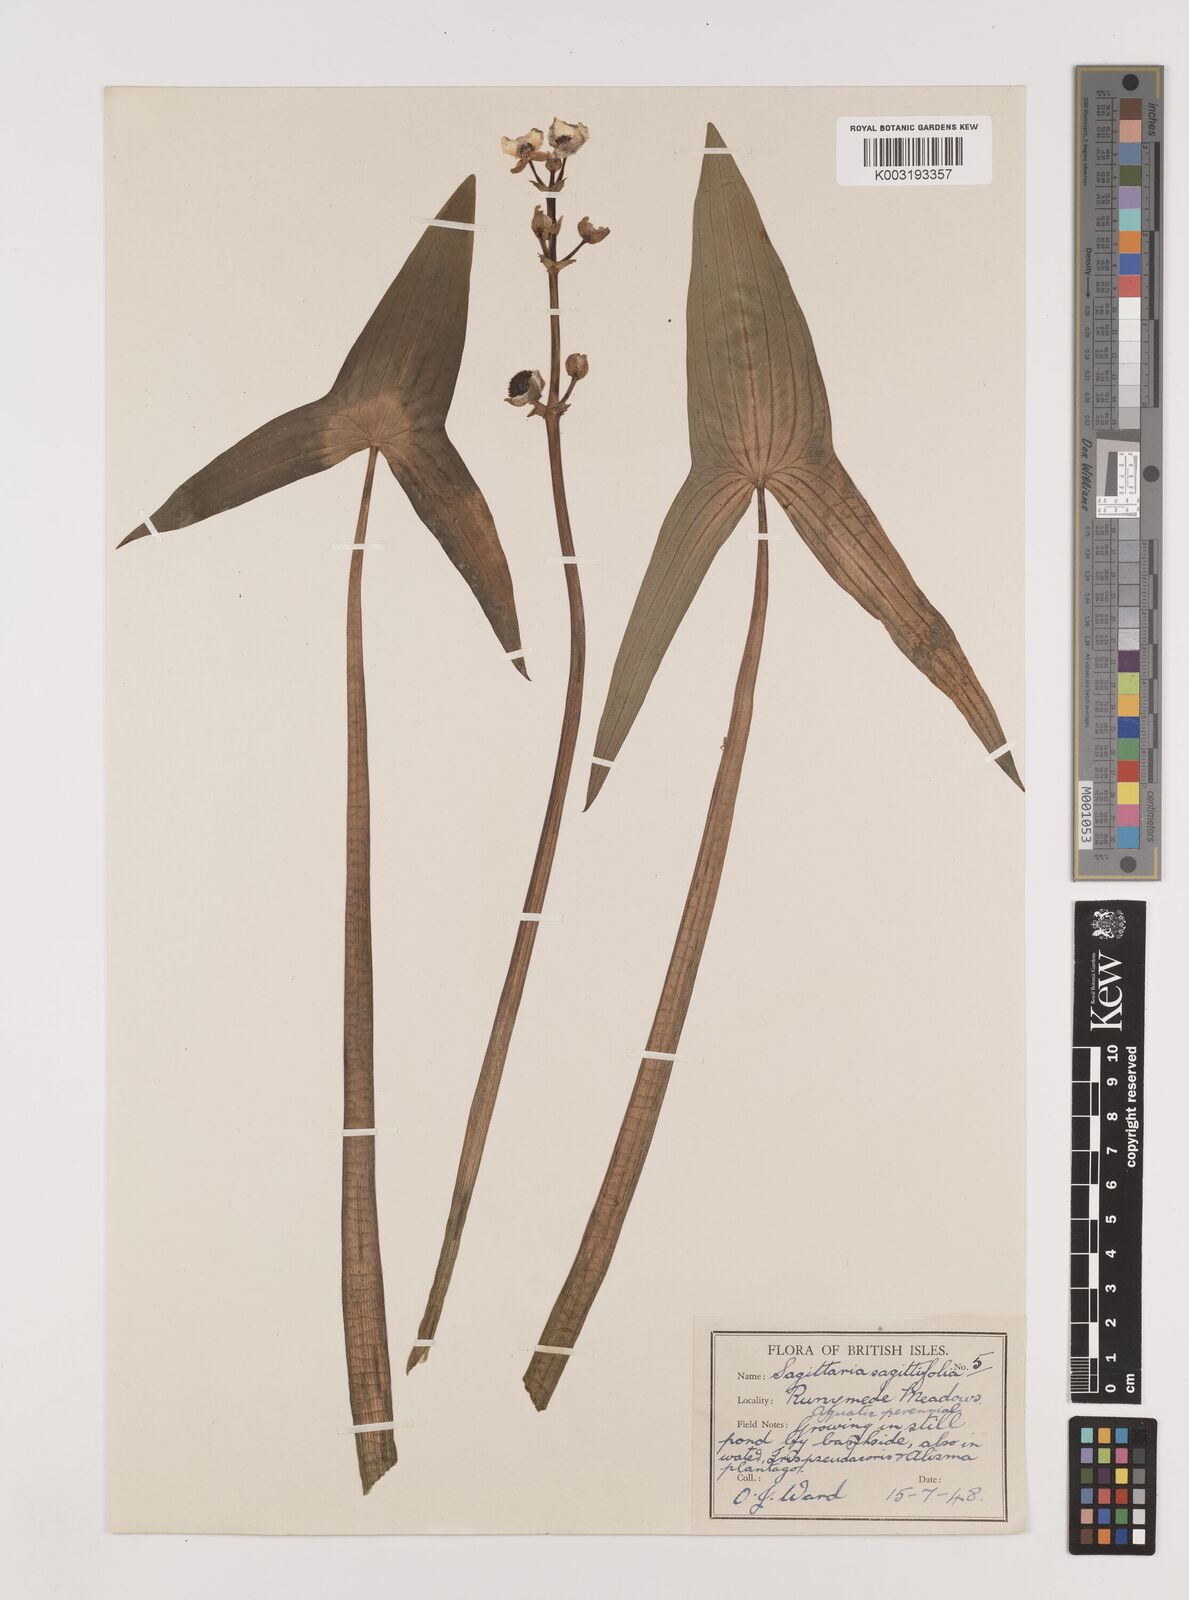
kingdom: Plantae
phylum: Tracheophyta
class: Liliopsida
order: Alismatales
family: Alismataceae
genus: Sagittaria
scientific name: Sagittaria sagittifolia
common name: Arrowhead
